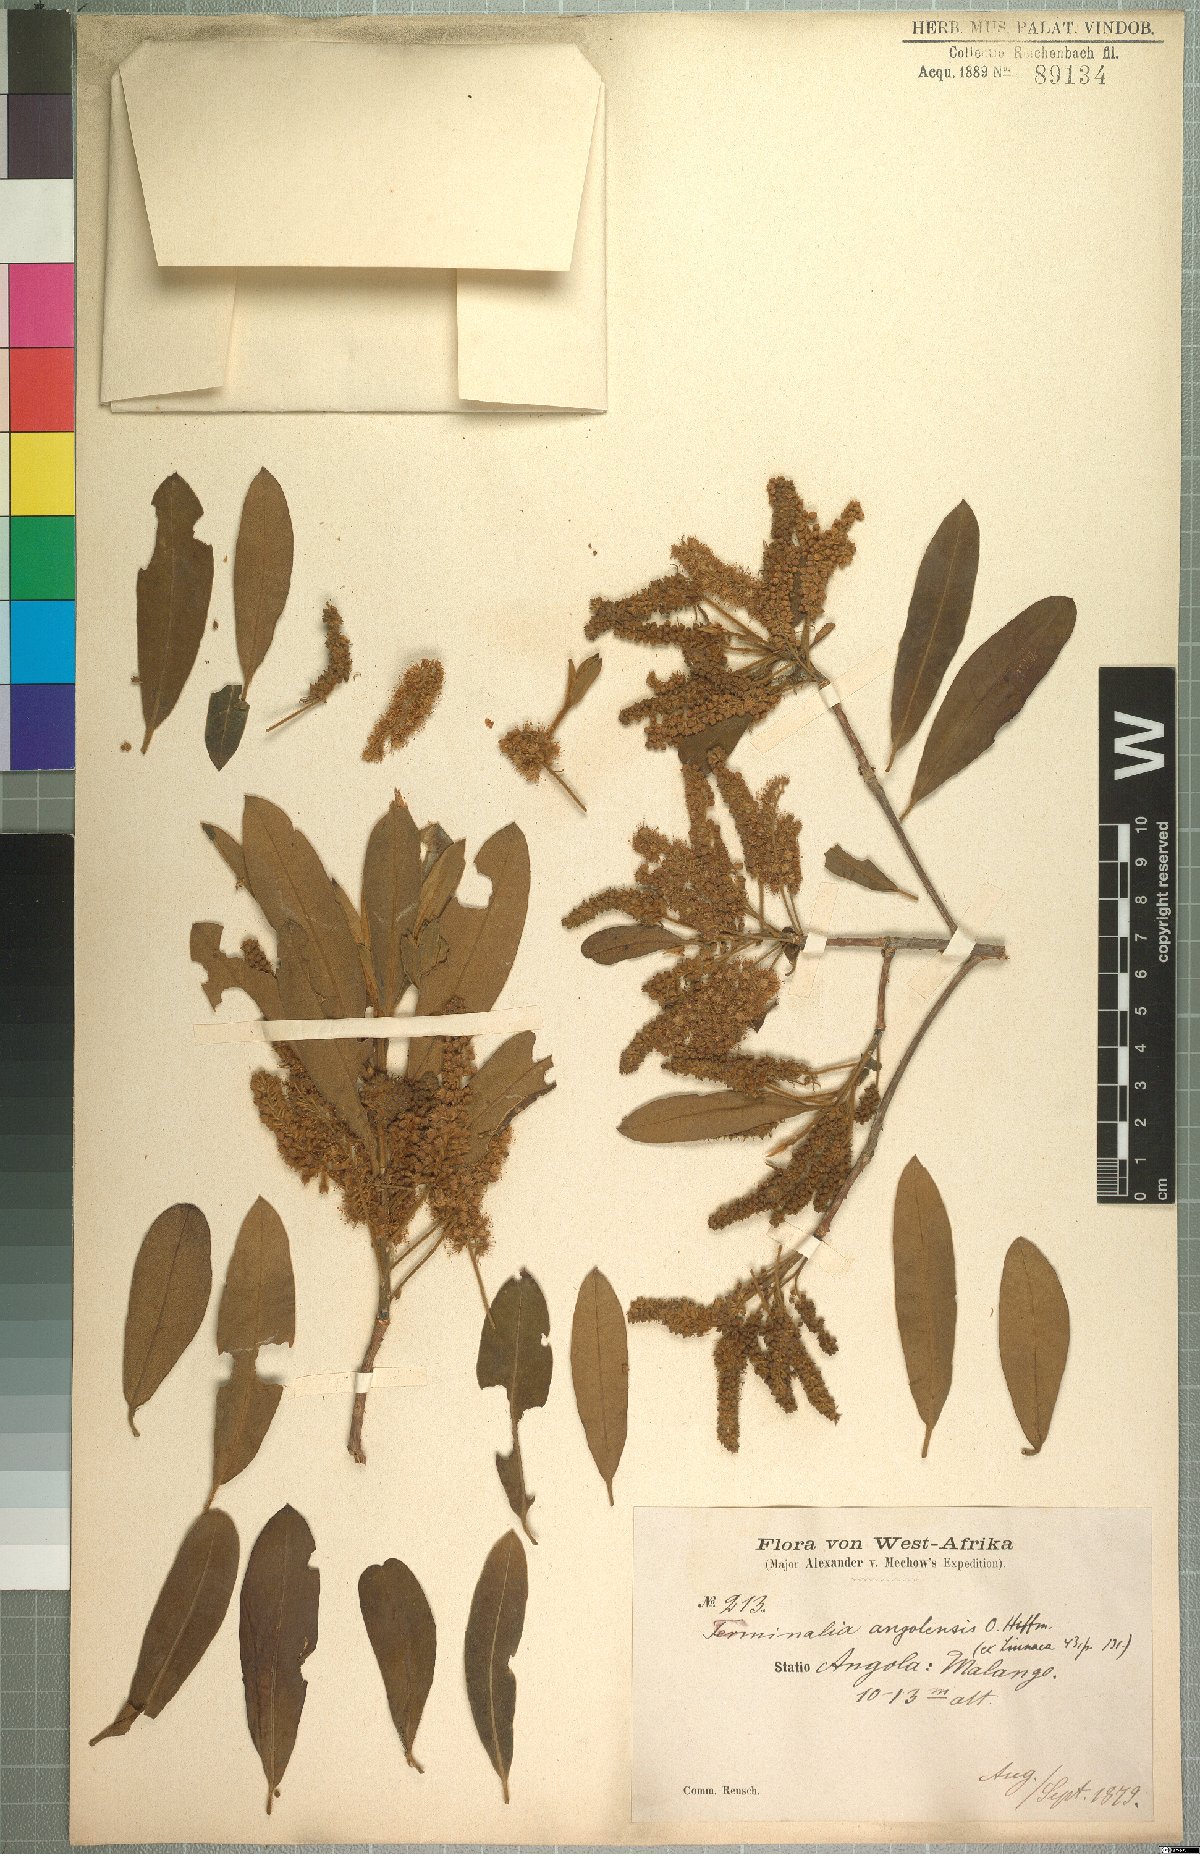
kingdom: Plantae
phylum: Tracheophyta
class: Magnoliopsida
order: Myrtales
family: Combretaceae
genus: Terminalia
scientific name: Terminalia sericea
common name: Clusterleaf
